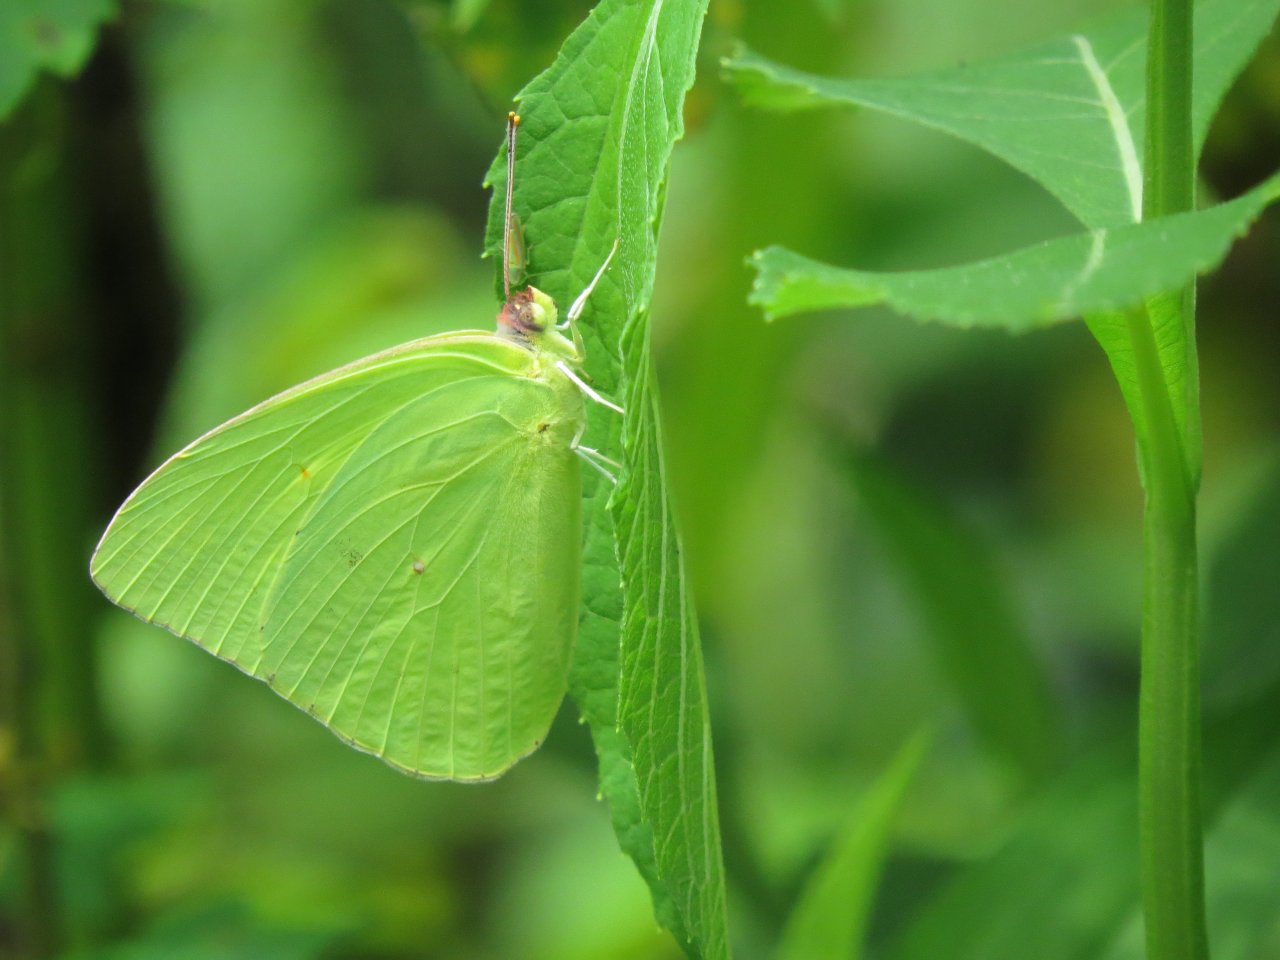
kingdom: Animalia
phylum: Arthropoda
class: Insecta
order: Lepidoptera
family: Pieridae
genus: Phoebis
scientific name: Phoebis sennae
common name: Cloudless Sulphur
